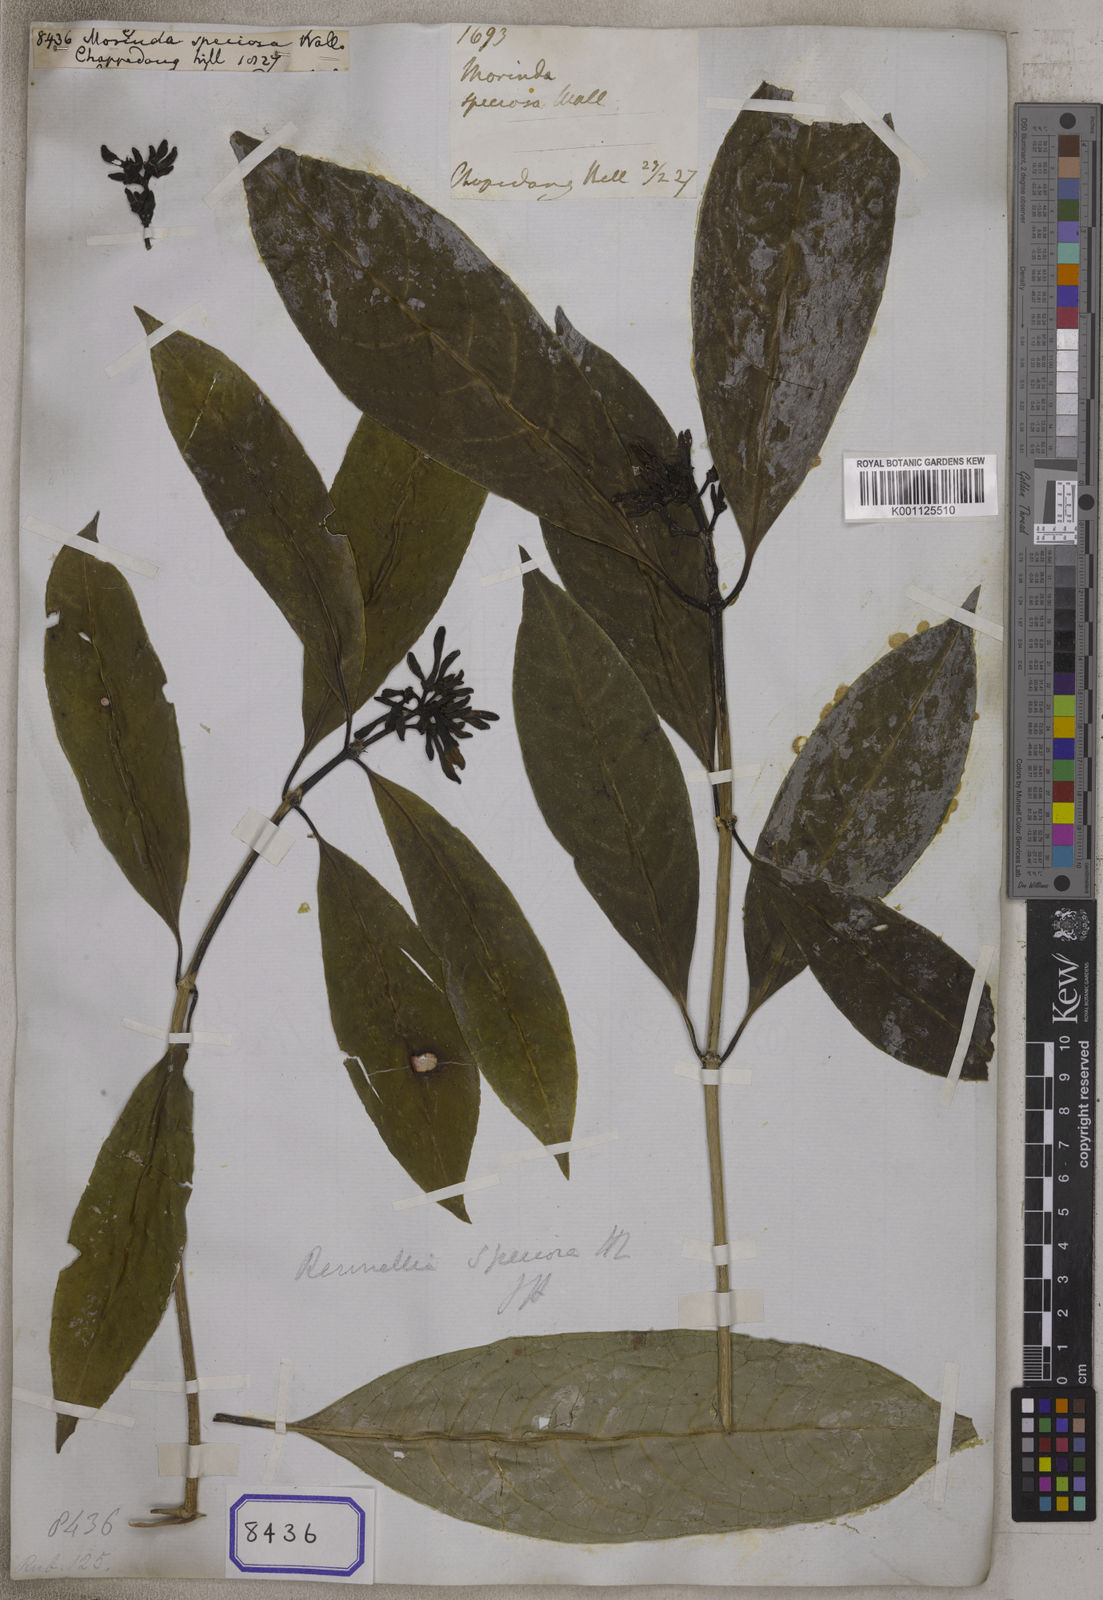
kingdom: Plantae
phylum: Tracheophyta
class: Magnoliopsida
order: Gentianales
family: Rubiaceae
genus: Morinda
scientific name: Morinda
